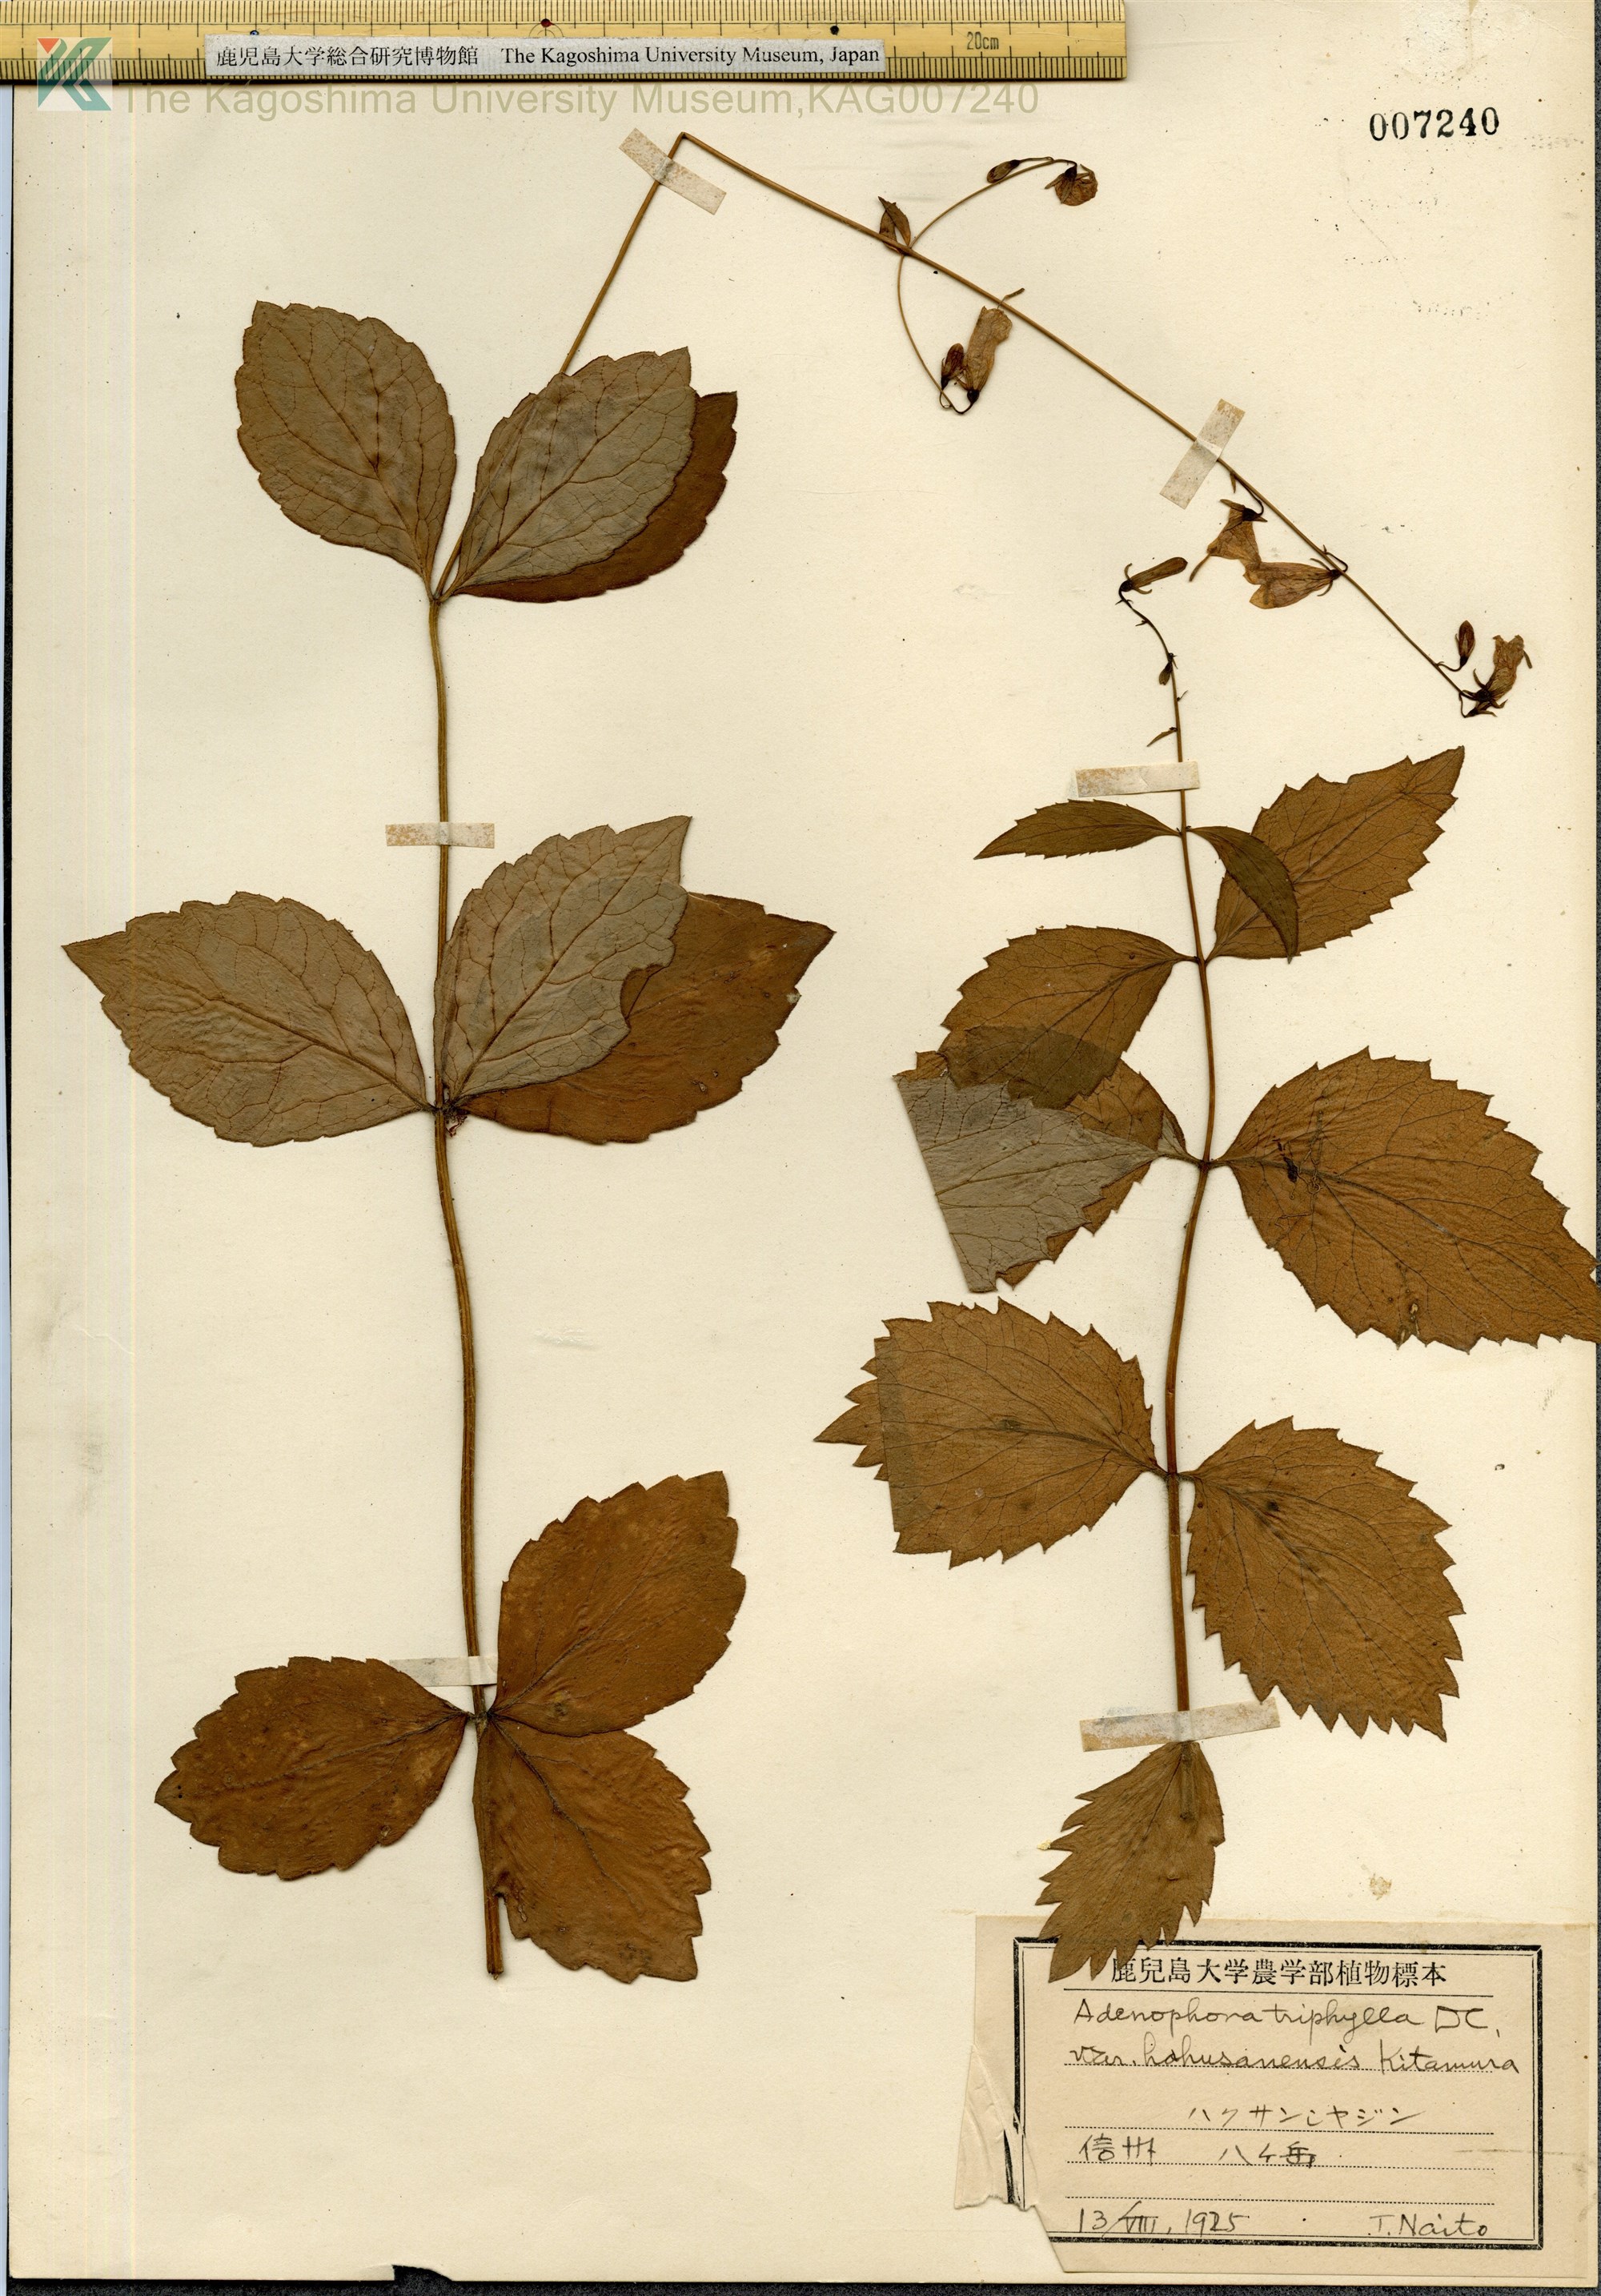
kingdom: Plantae
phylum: Tracheophyta
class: Magnoliopsida
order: Asterales
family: Campanulaceae
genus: Adenophora
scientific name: Adenophora triphylla
